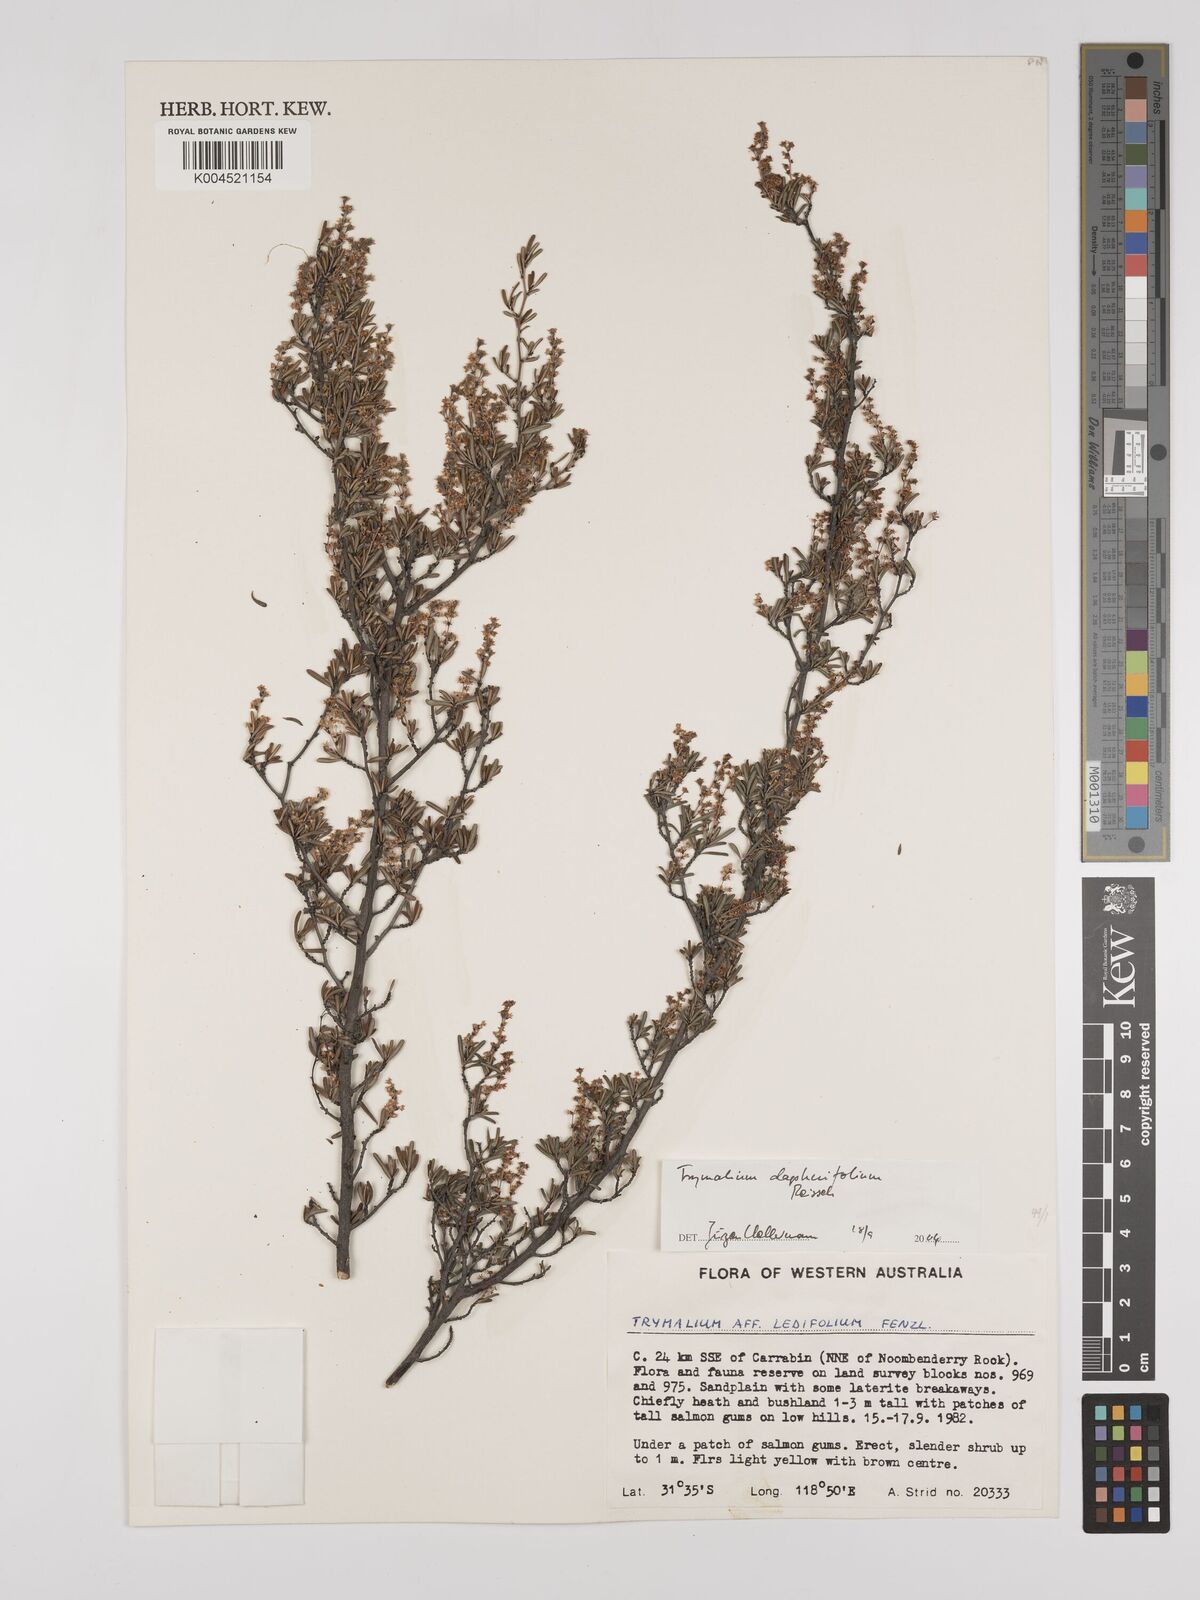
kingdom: Plantae
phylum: Tracheophyta
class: Magnoliopsida
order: Rosales
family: Rhamnaceae
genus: Trymalium
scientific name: Trymalium angustifolium
